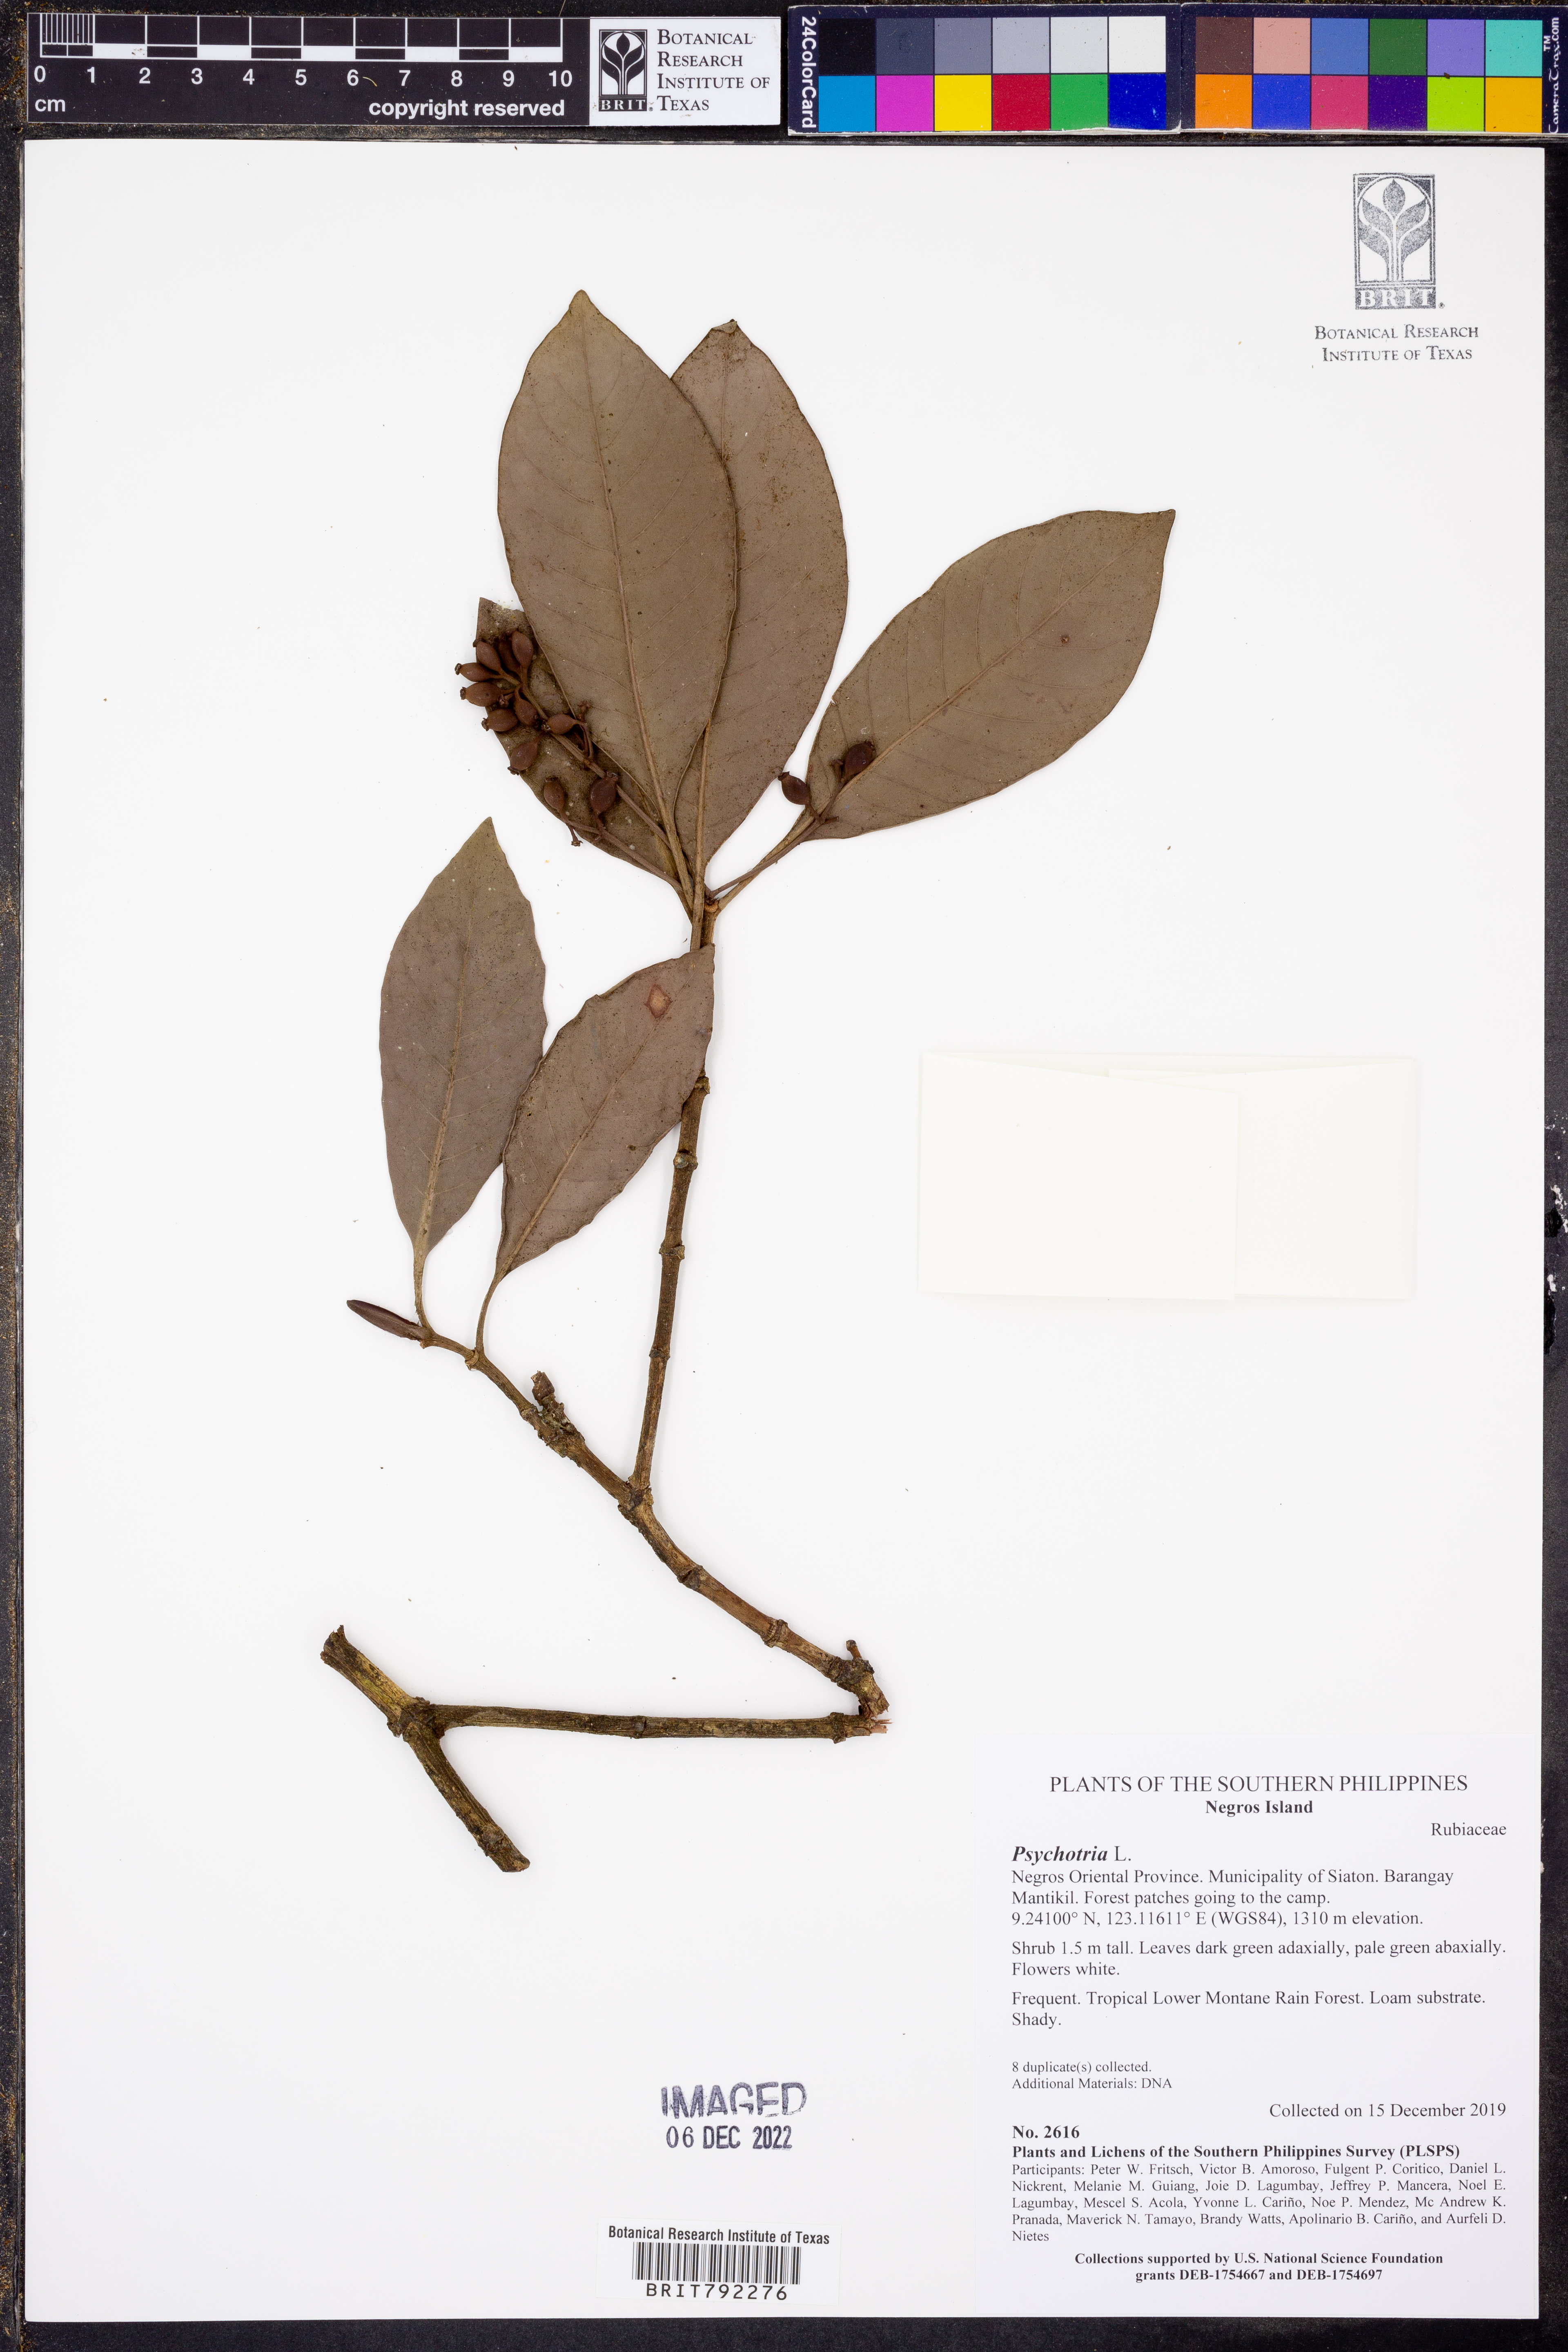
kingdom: Plantae
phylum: Tracheophyta
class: Magnoliopsida
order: Gentianales
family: Rubiaceae
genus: Psychotria
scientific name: Psychotria
